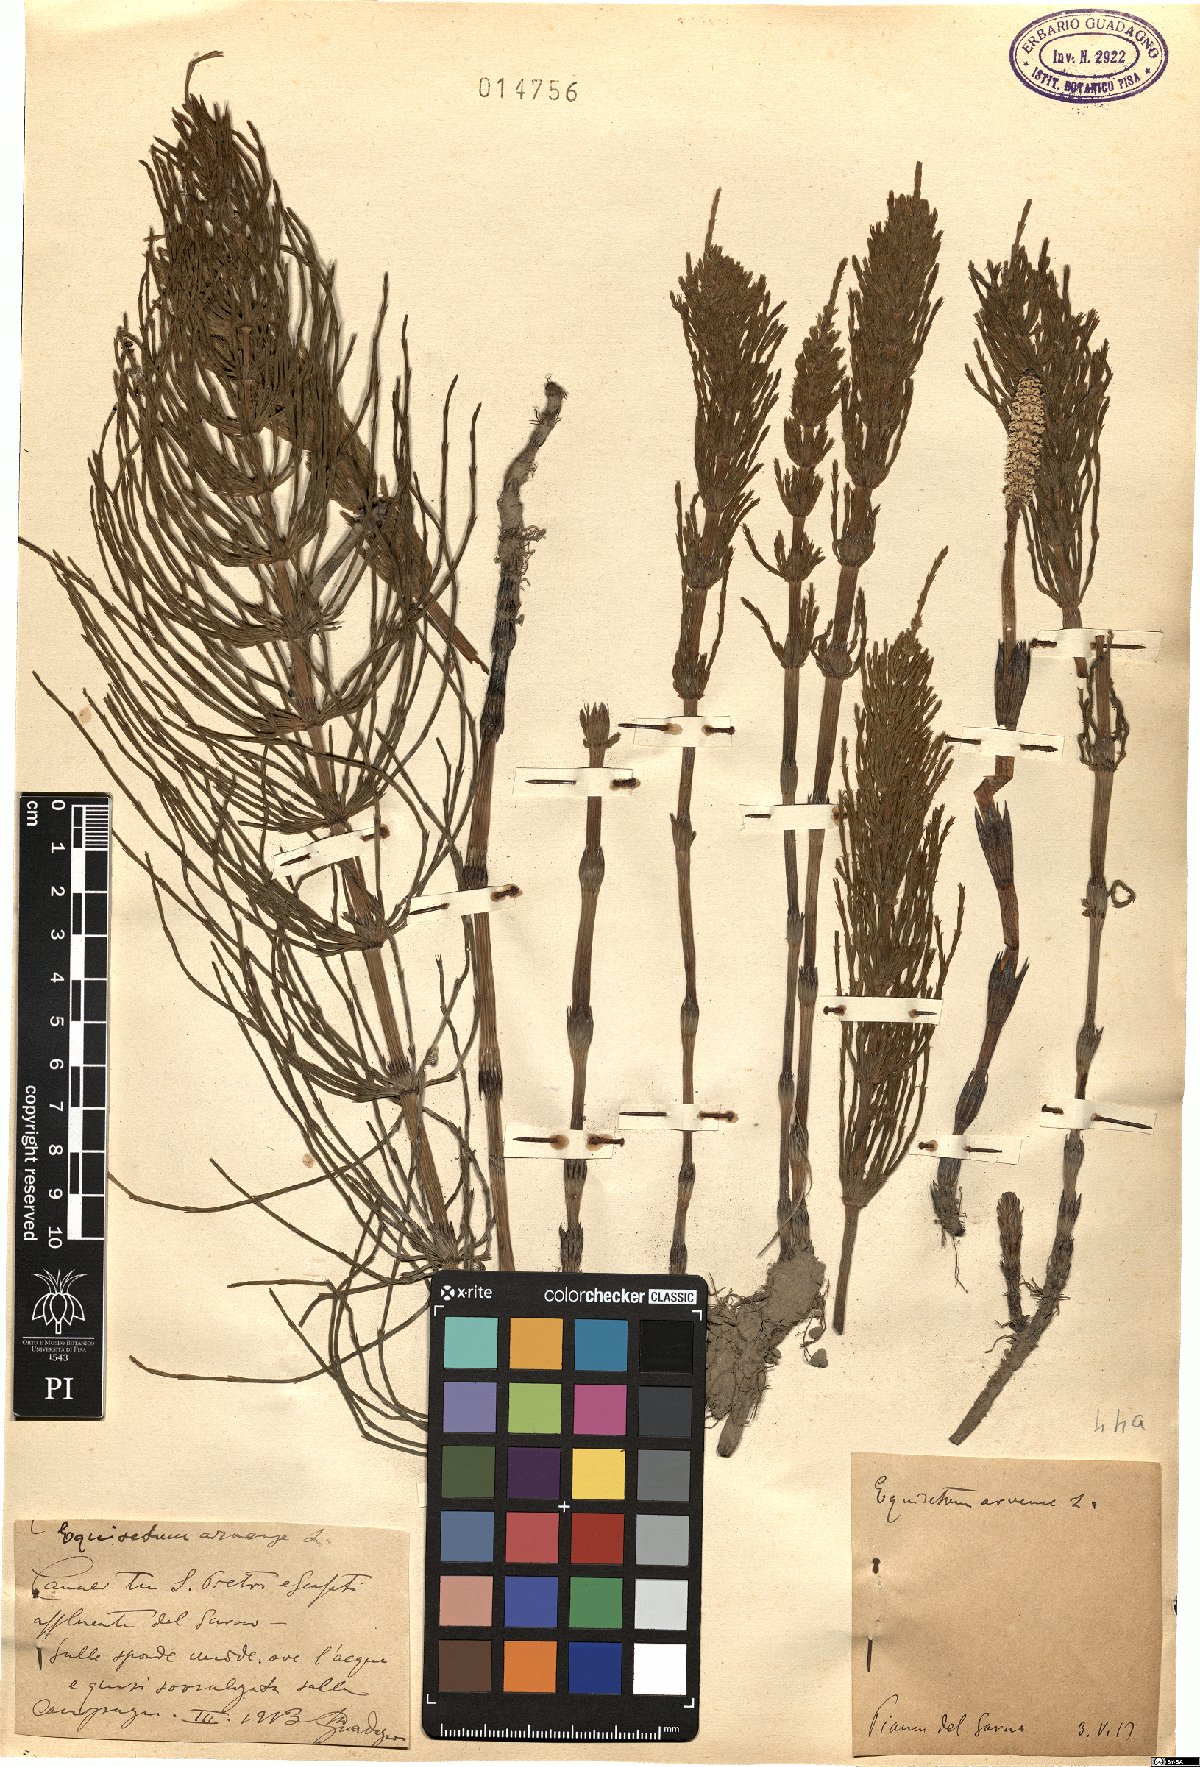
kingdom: Plantae
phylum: Tracheophyta
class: Polypodiopsida
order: Equisetales
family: Equisetaceae
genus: Equisetum
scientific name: Equisetum arvense
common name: Field horsetail
